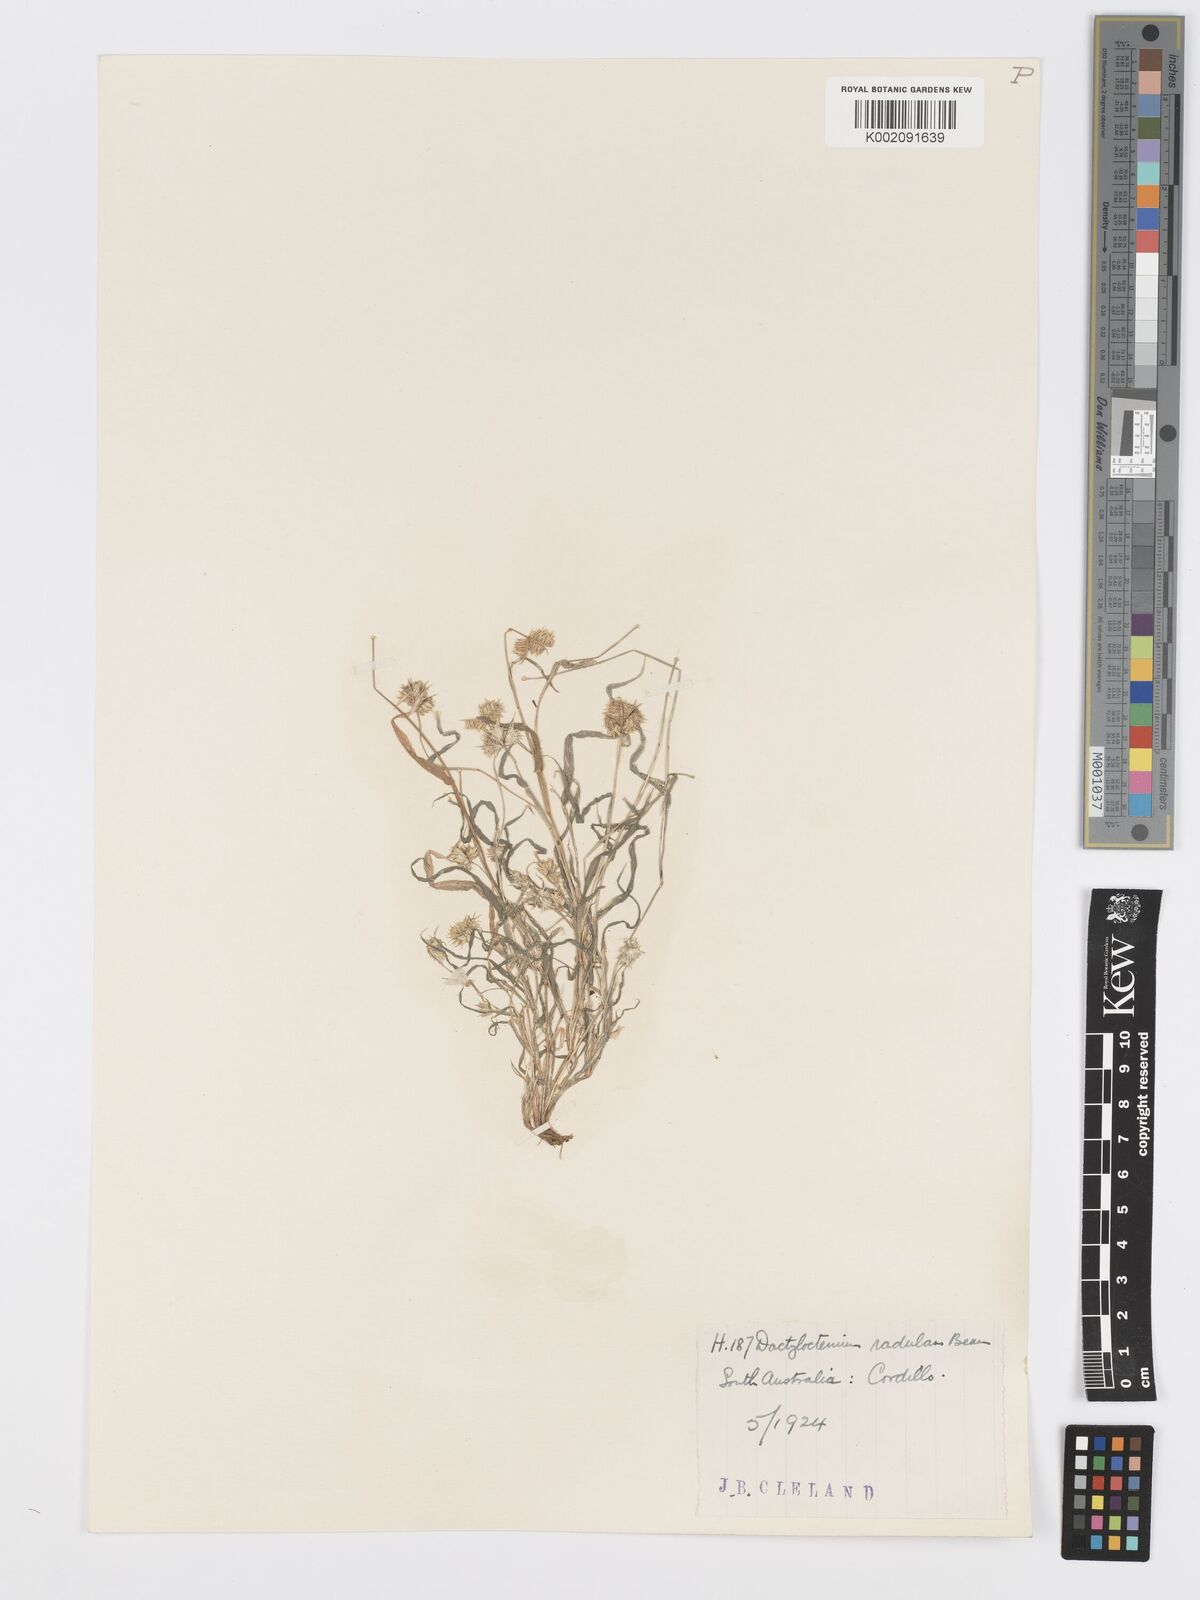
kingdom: Plantae
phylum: Tracheophyta
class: Liliopsida
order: Poales
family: Poaceae
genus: Dactyloctenium
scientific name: Dactyloctenium radulans
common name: Button-grass
